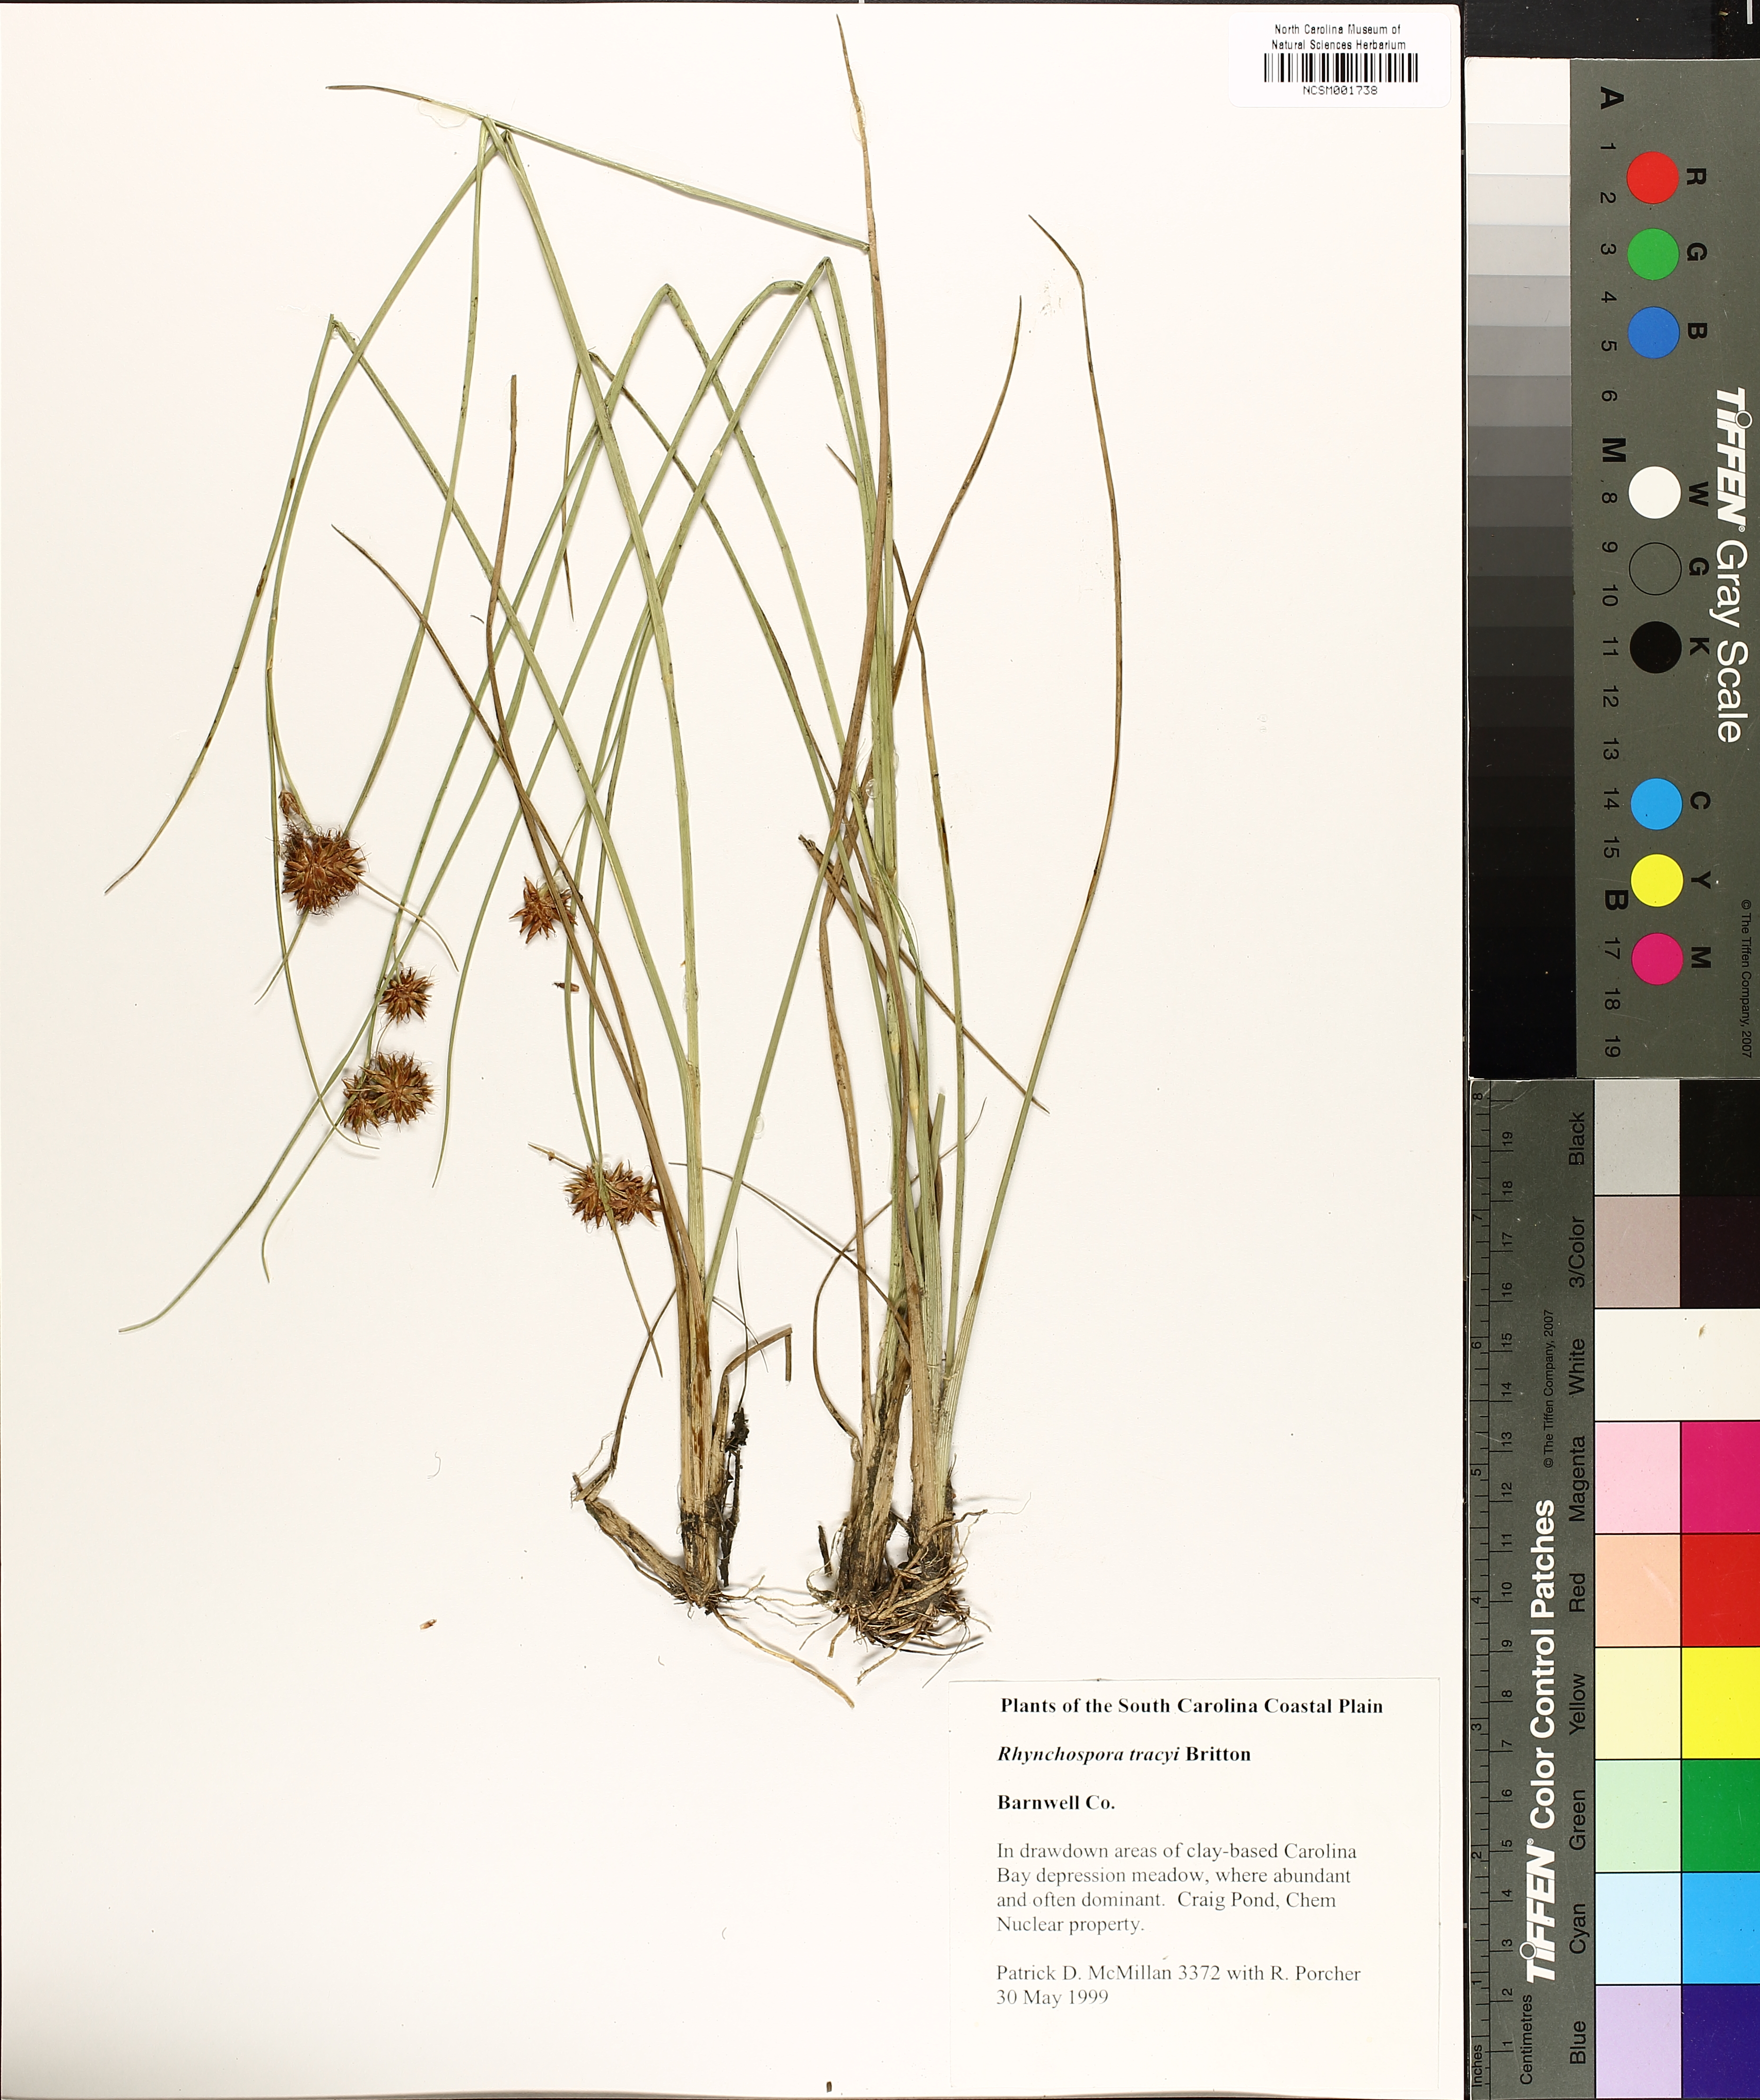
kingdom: Plantae
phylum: Tracheophyta
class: Liliopsida
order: Poales
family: Cyperaceae
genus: Rhynchospora
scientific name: Rhynchospora tracyi
